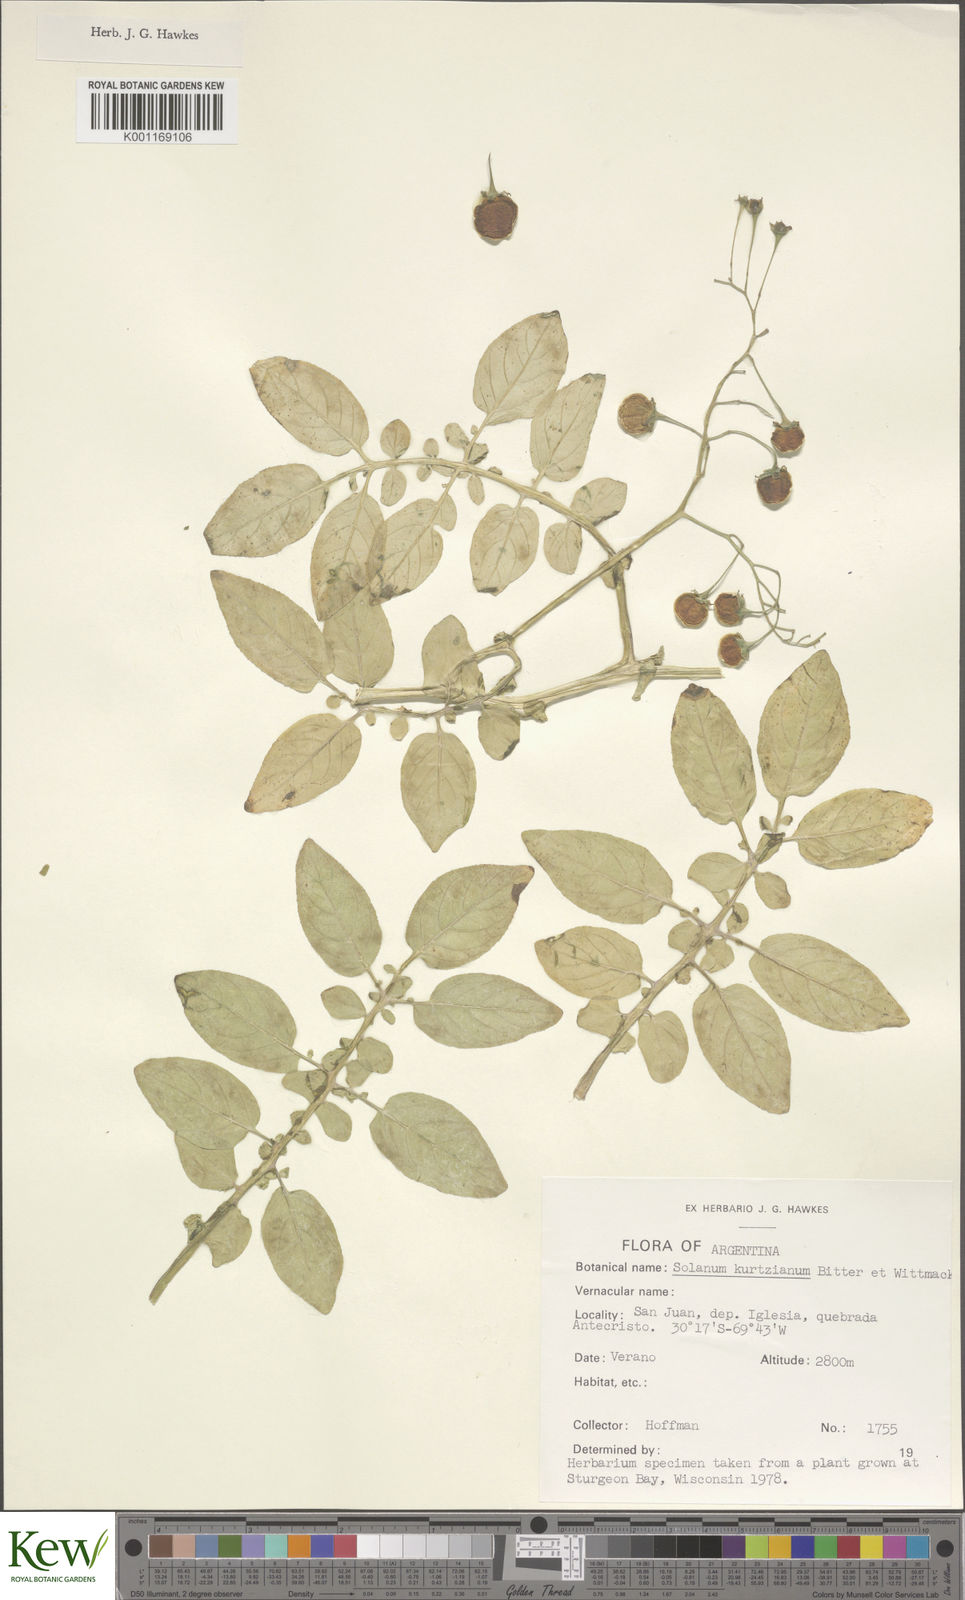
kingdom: Plantae
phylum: Tracheophyta
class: Magnoliopsida
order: Solanales
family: Solanaceae
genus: Solanum
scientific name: Solanum kurtzianum
